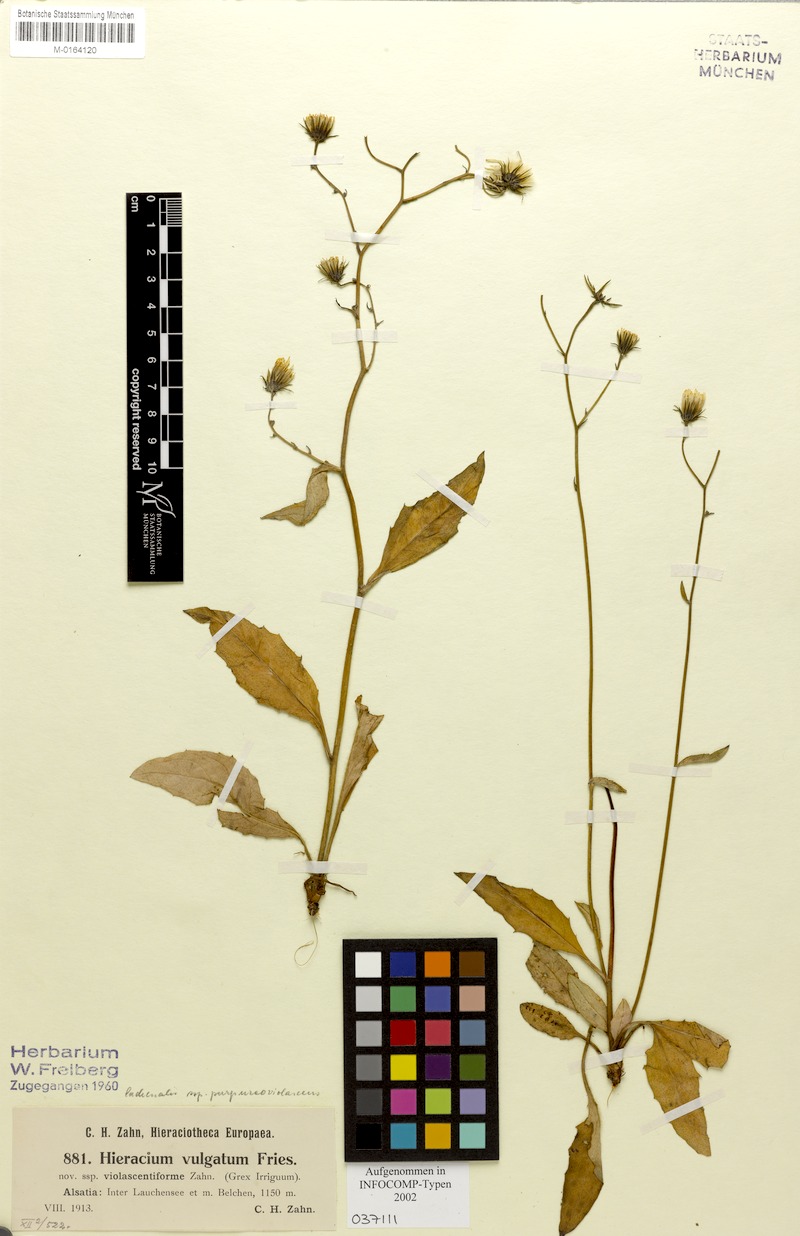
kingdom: Plantae
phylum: Tracheophyta
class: Magnoliopsida
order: Asterales
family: Asteraceae
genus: Hieracium
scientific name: Hieracium lachenalii
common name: Common hawkweed
